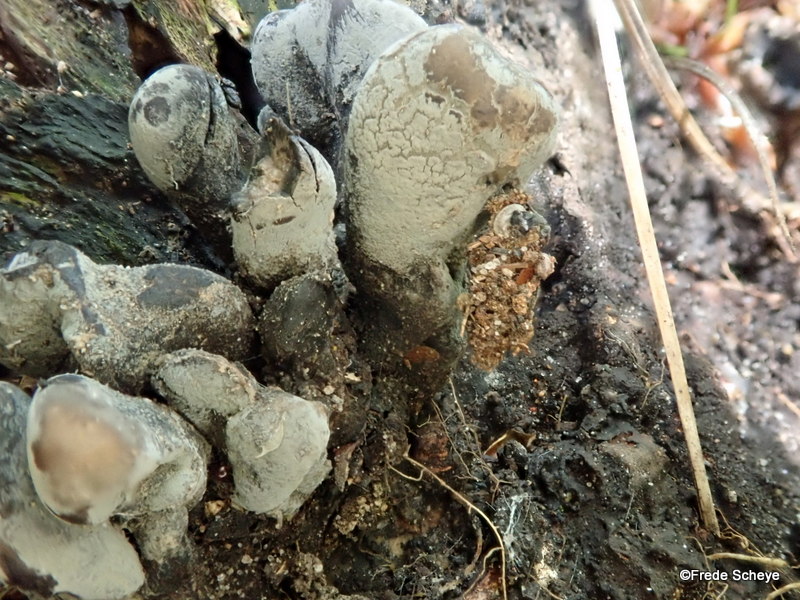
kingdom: Fungi
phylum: Ascomycota
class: Sordariomycetes
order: Xylariales
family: Xylariaceae
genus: Xylaria
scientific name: Xylaria polymorpha
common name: kølle-stødsvamp
